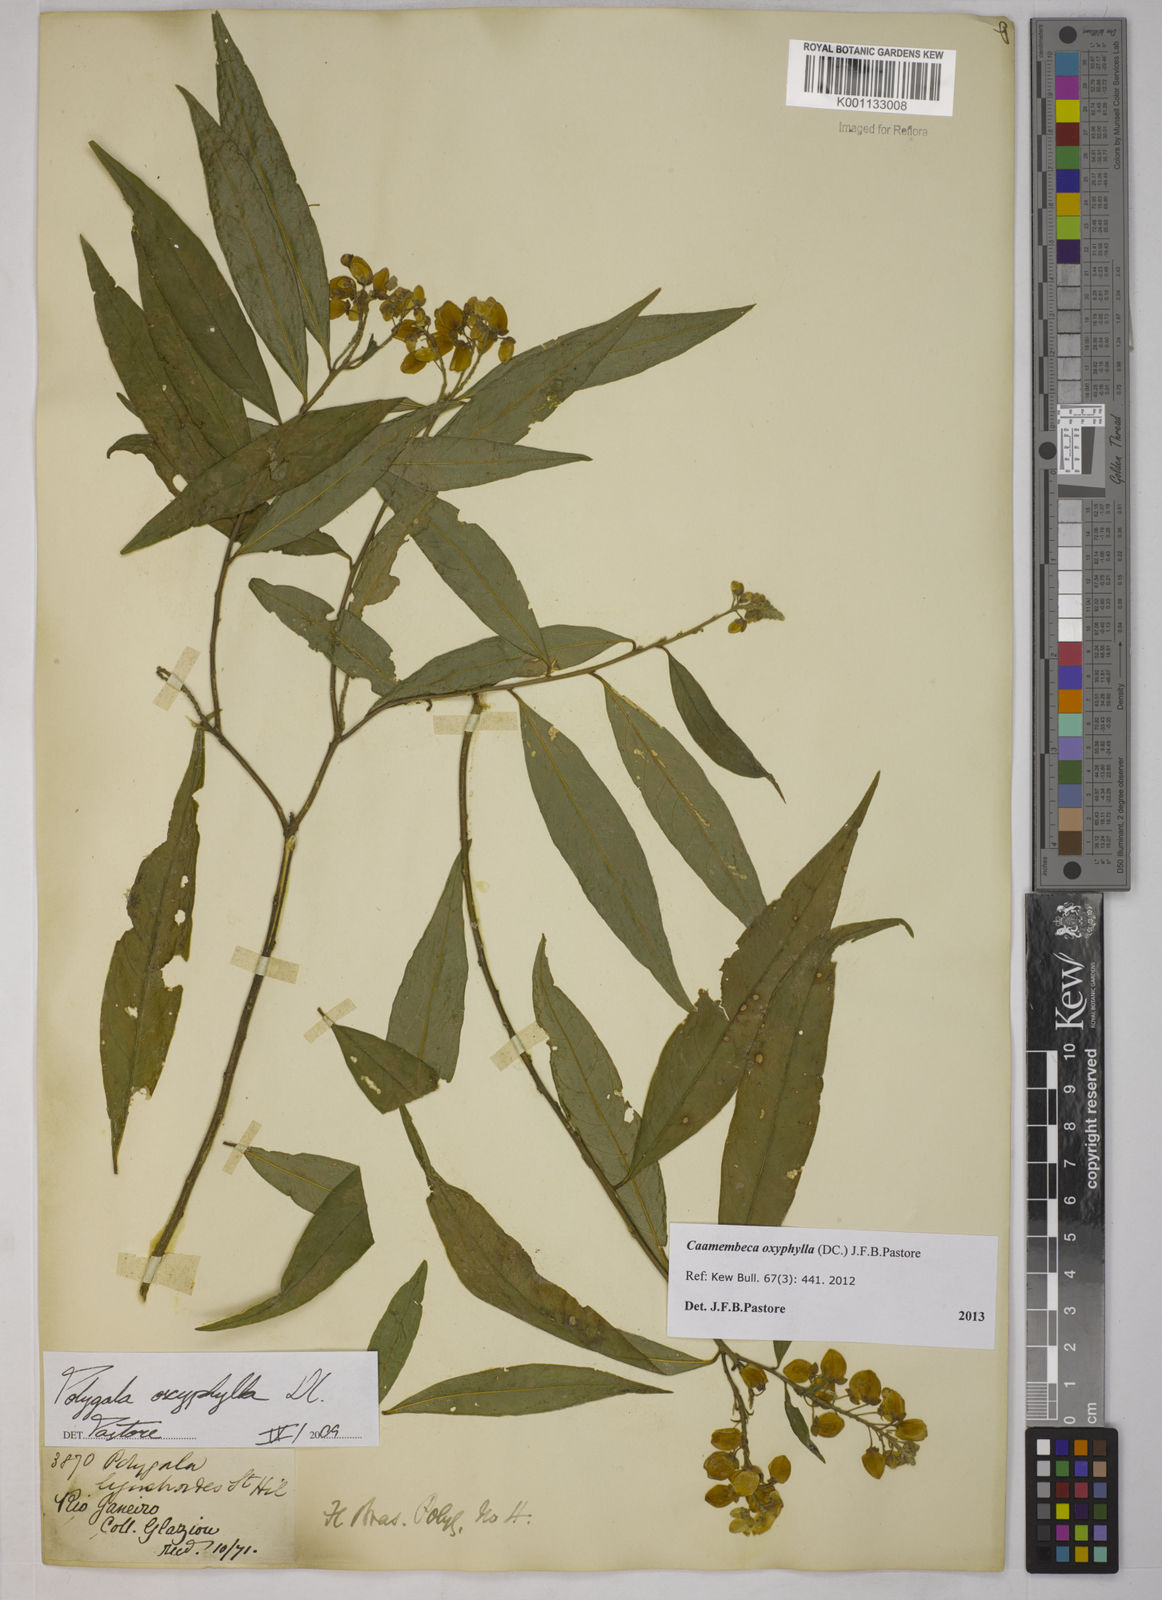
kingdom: Plantae
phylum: Tracheophyta
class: Magnoliopsida
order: Fabales
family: Polygalaceae
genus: Caamembeca
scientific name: Caamembeca oxyphylla
